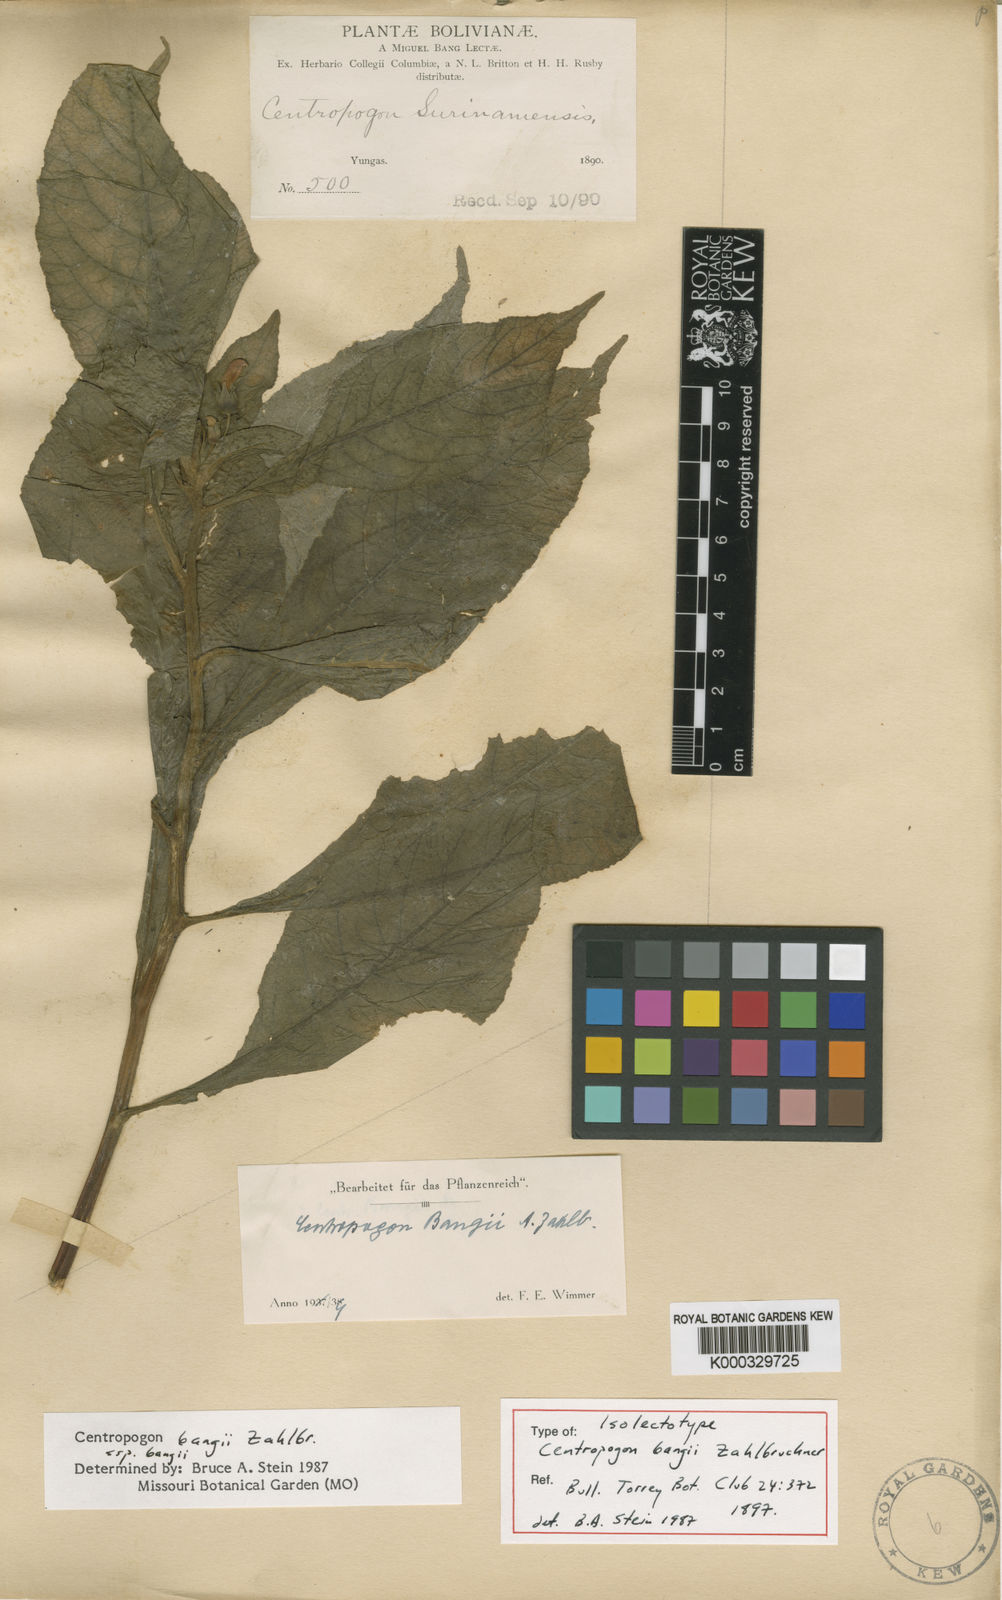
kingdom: Plantae
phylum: Tracheophyta
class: Magnoliopsida
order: Asterales
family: Campanulaceae
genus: Centropogon
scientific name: Centropogon bangii
